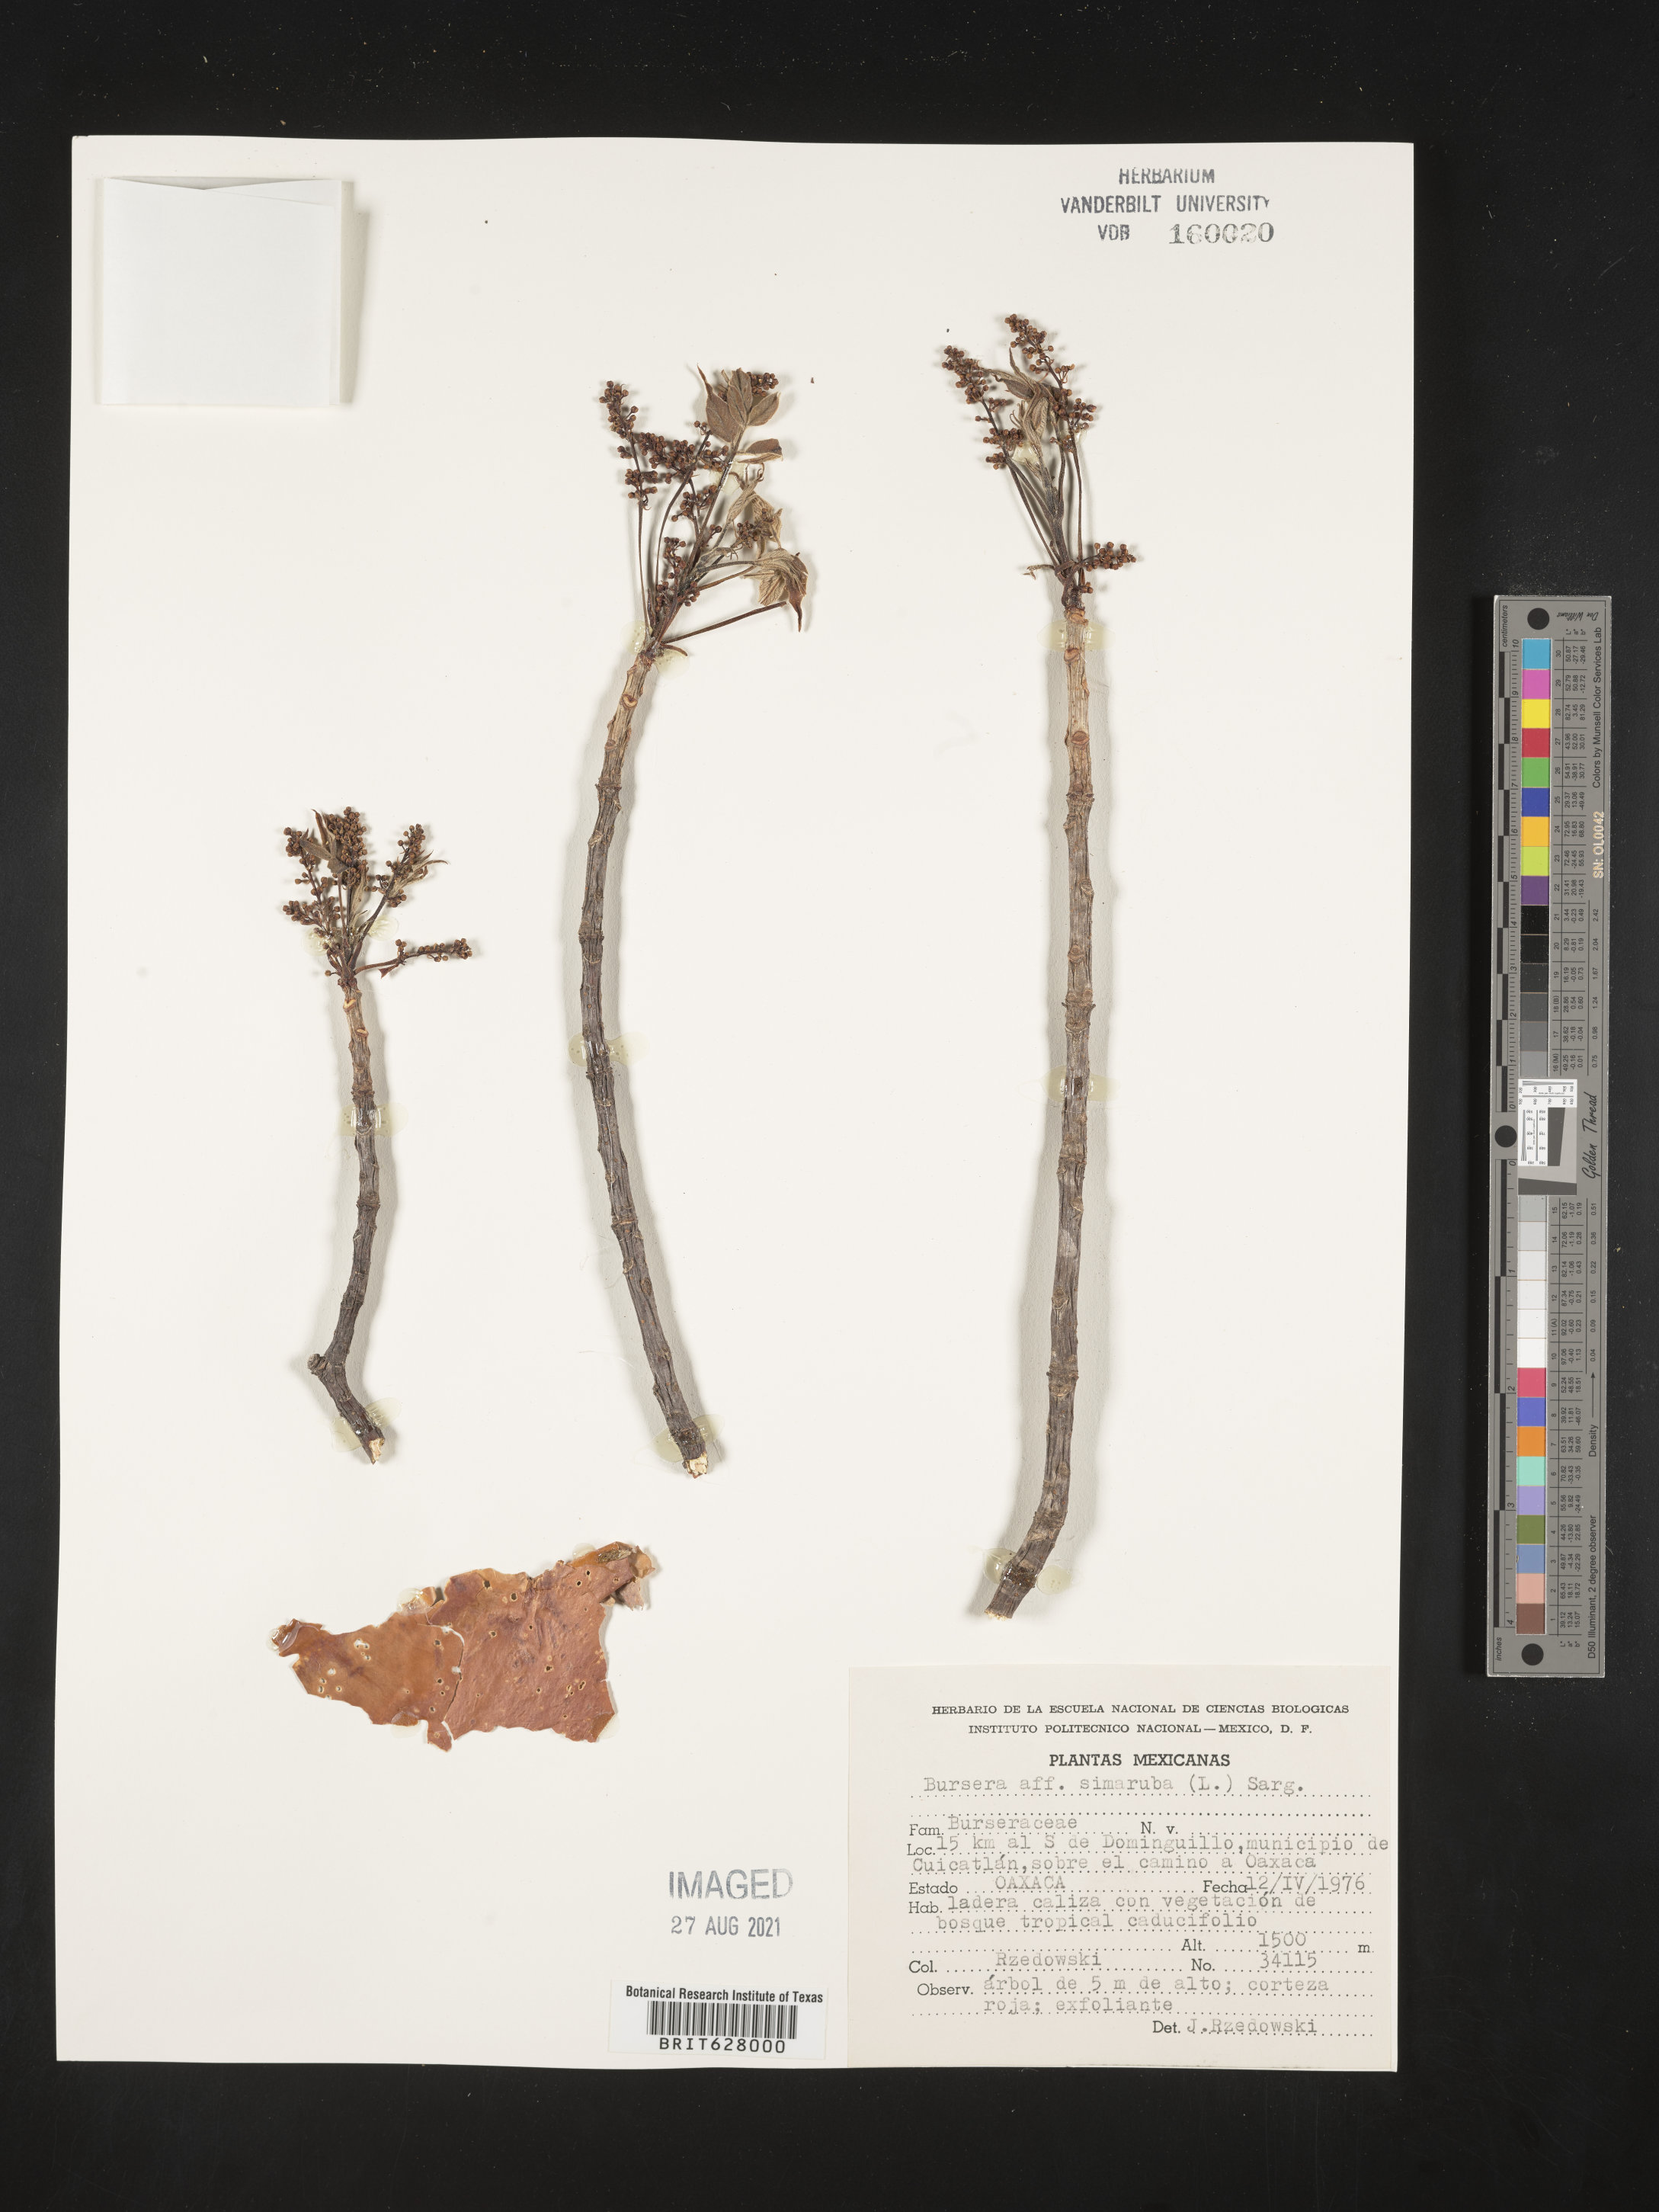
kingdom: Plantae
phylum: Tracheophyta
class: Magnoliopsida
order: Sapindales
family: Burseraceae
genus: Bursera
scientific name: Bursera
